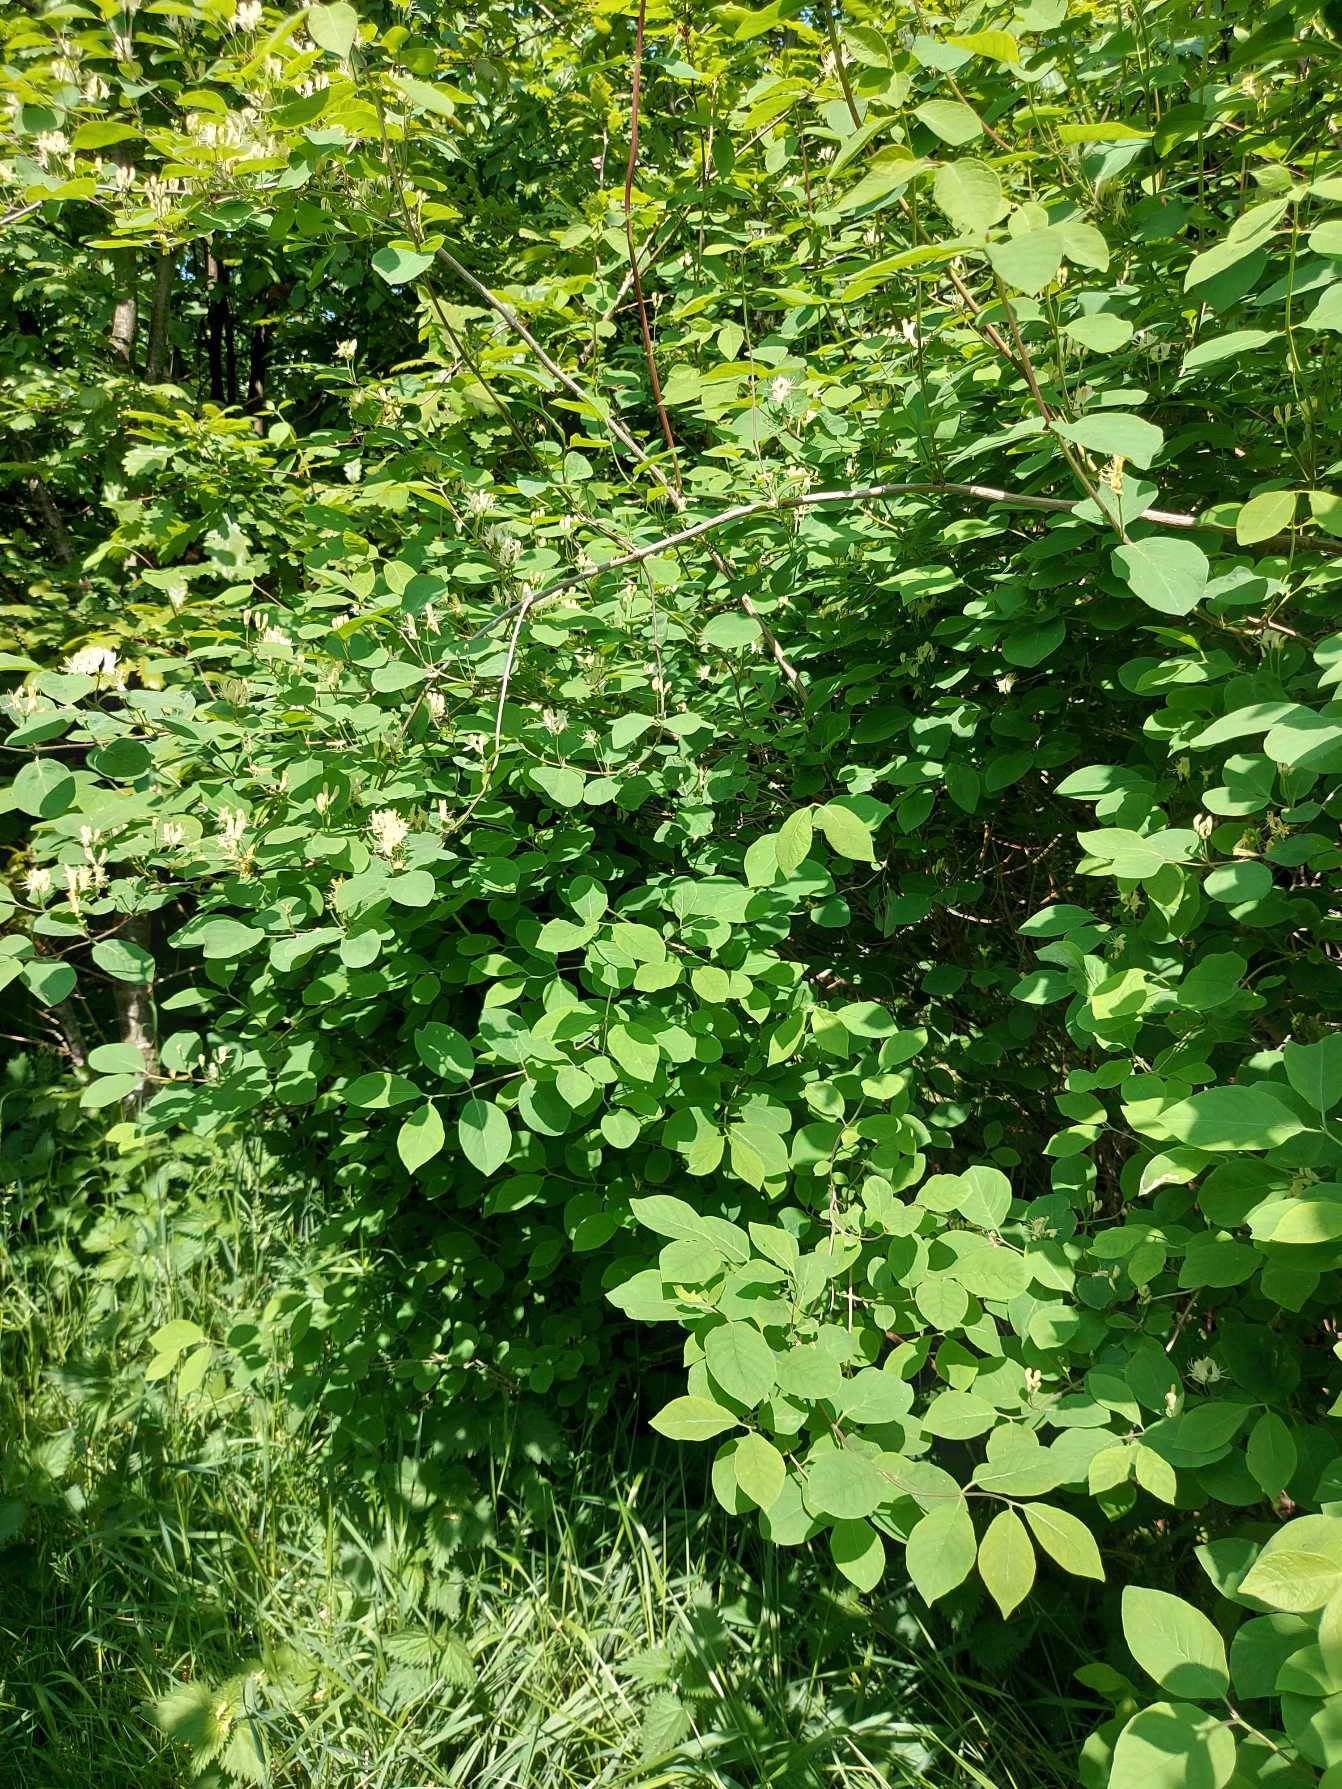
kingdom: Plantae
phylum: Tracheophyta
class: Magnoliopsida
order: Dipsacales
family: Caprifoliaceae
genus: Lonicera
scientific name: Lonicera xylosteum
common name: Dunet gedeblad
